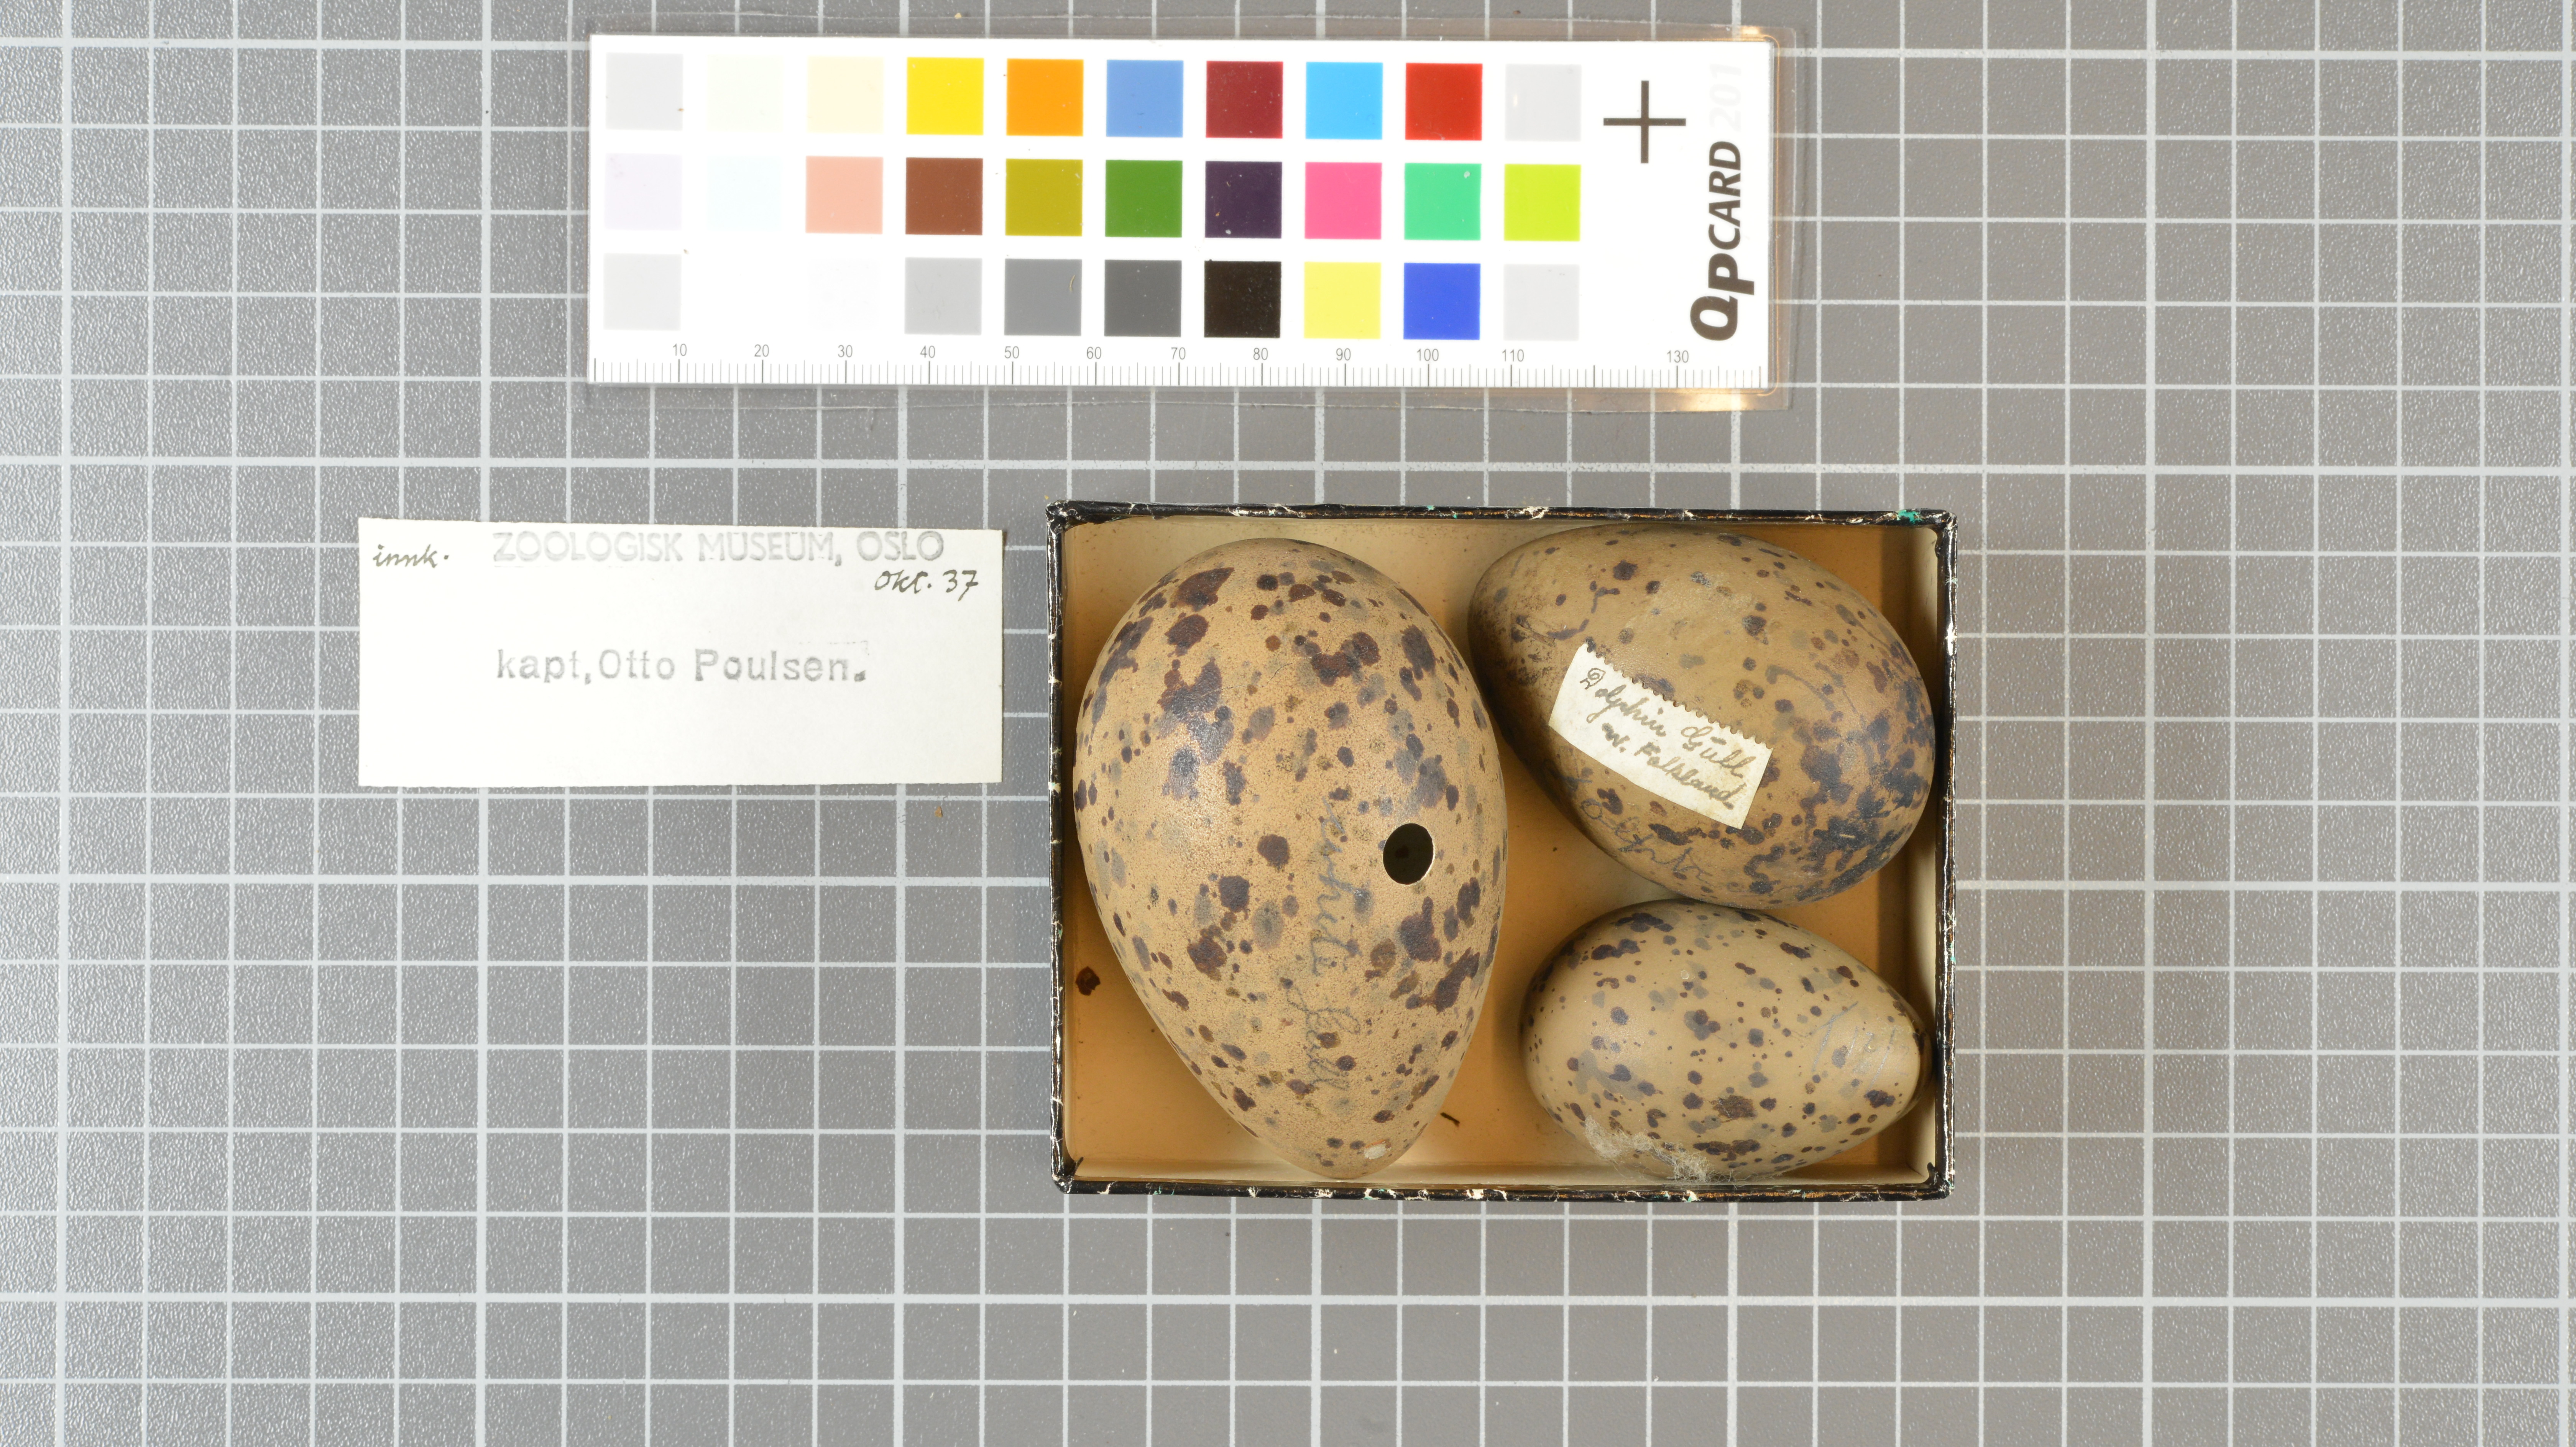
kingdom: Animalia
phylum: Chordata
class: Aves
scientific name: Aves
